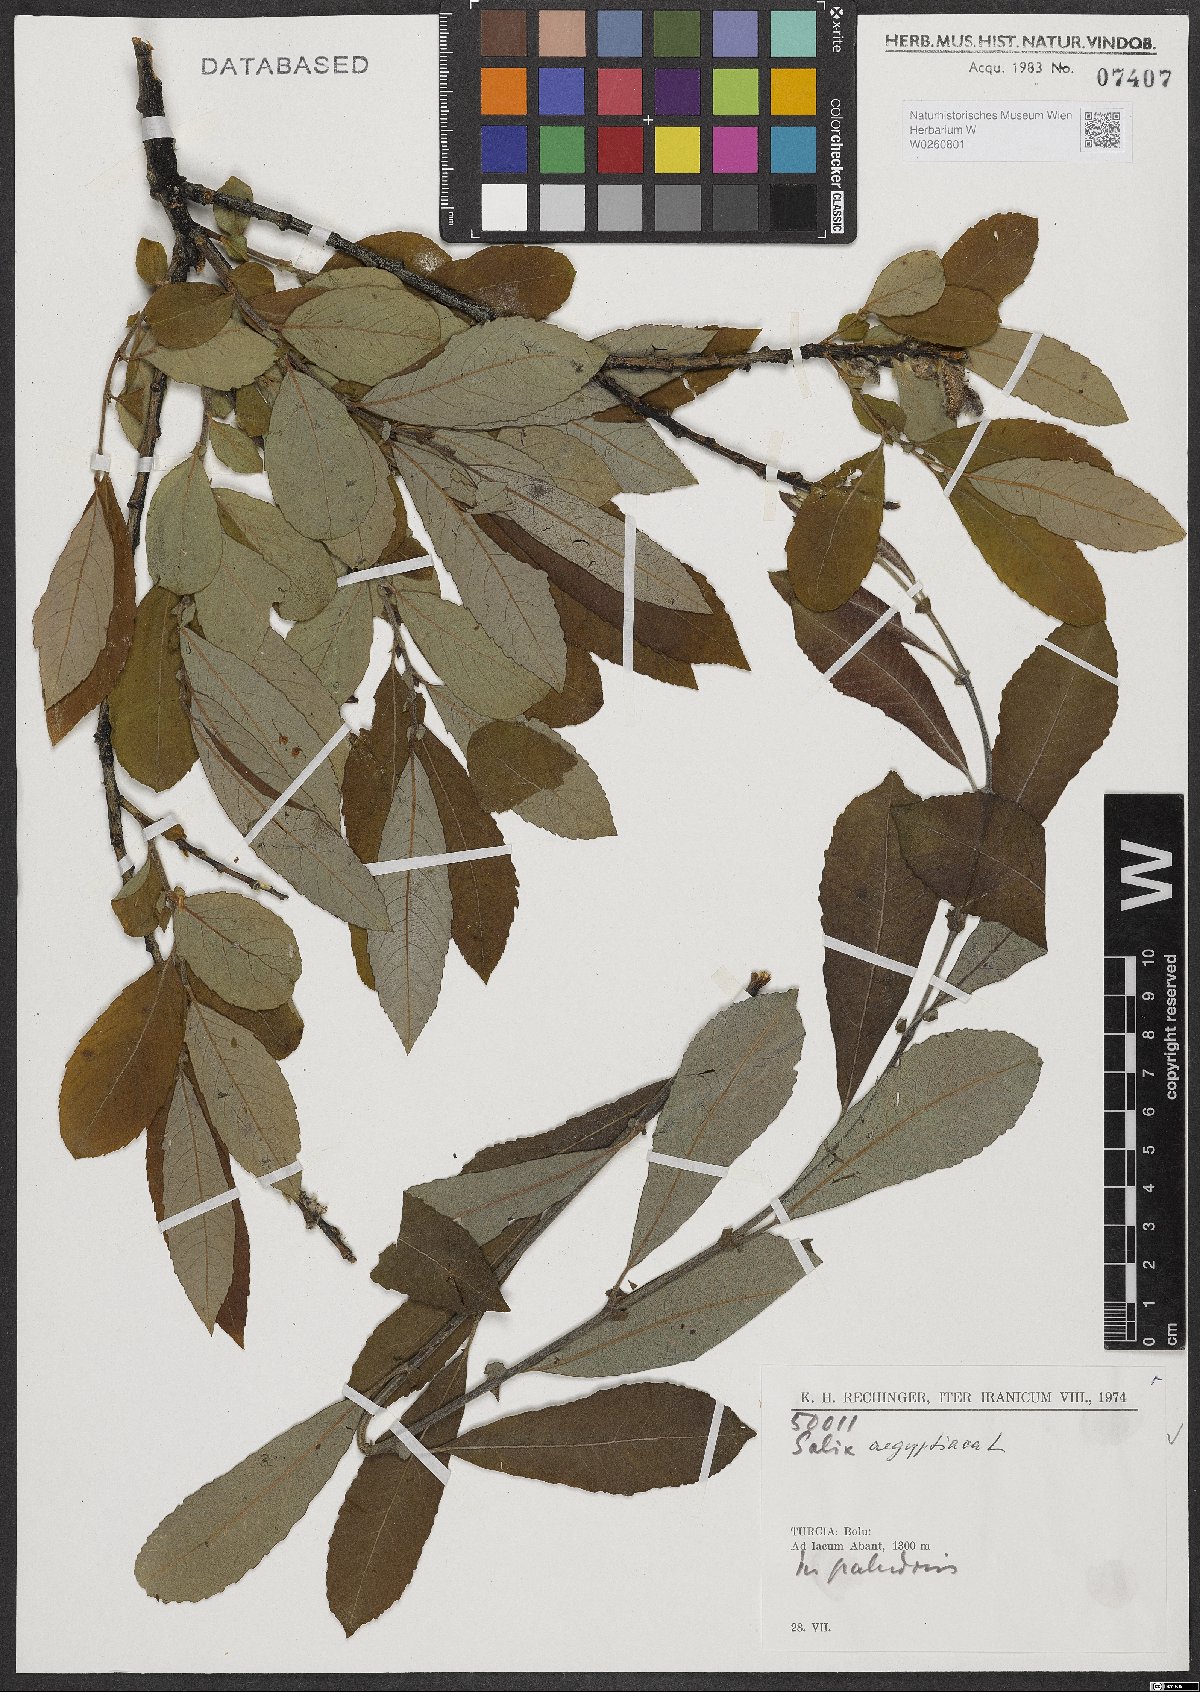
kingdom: Plantae
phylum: Tracheophyta
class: Magnoliopsida
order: Malpighiales
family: Salicaceae
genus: Salix
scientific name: Salix aegyptiaca
